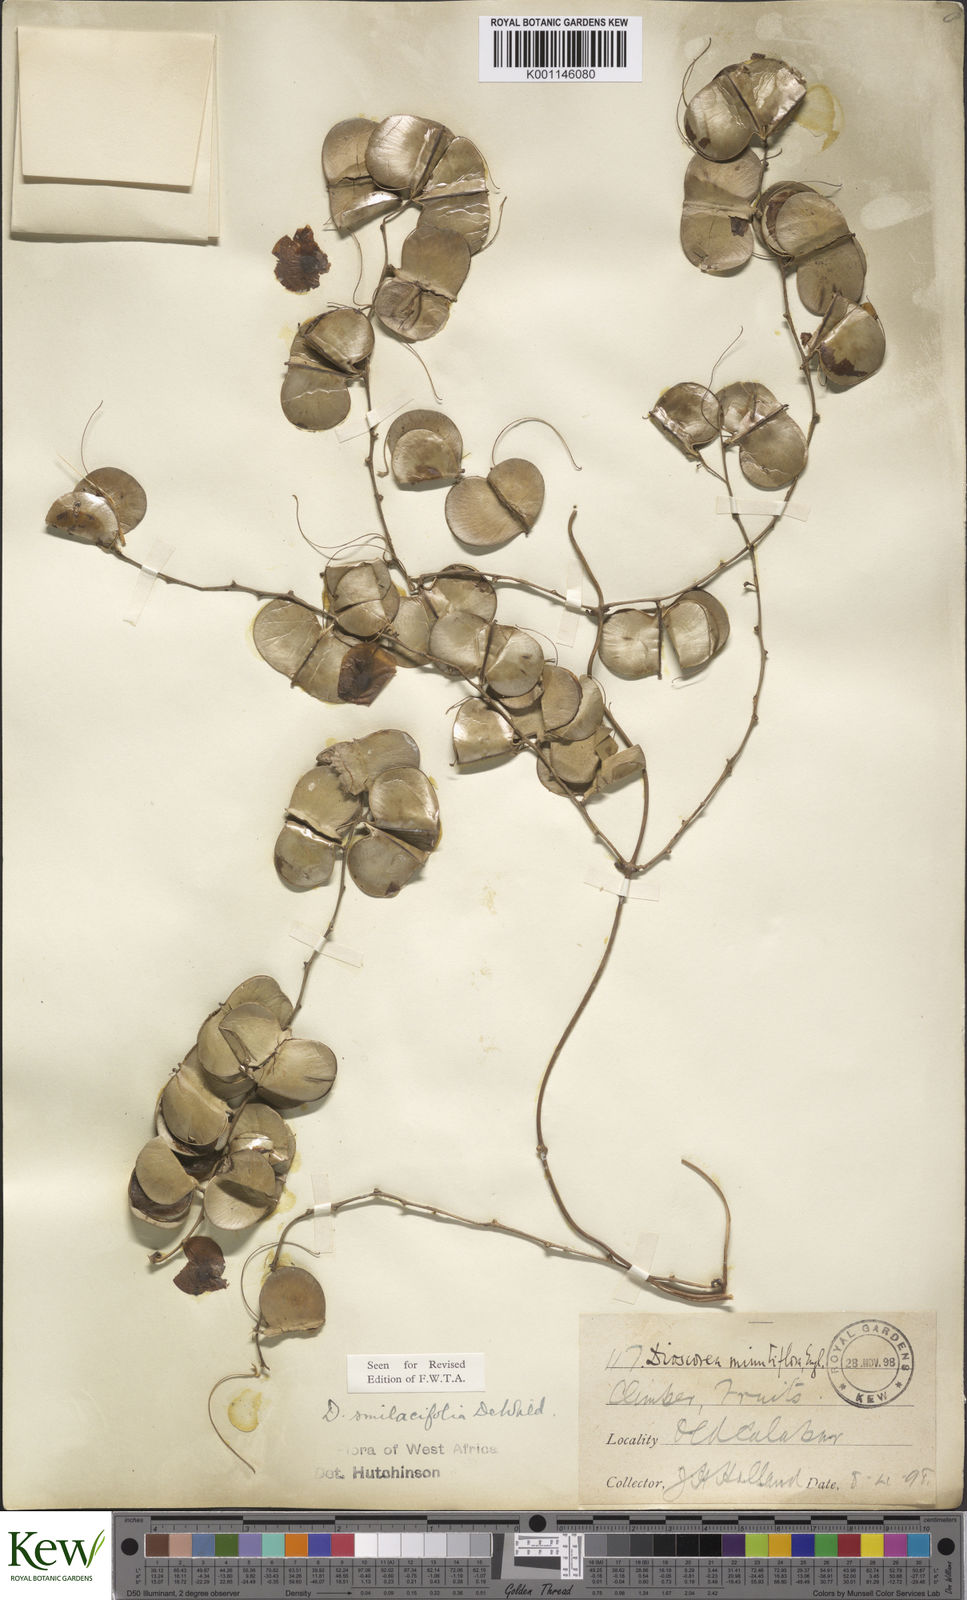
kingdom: Plantae
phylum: Tracheophyta
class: Liliopsida
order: Dioscoreales
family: Dioscoreaceae
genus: Dioscorea
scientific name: Dioscorea smilacifolia
